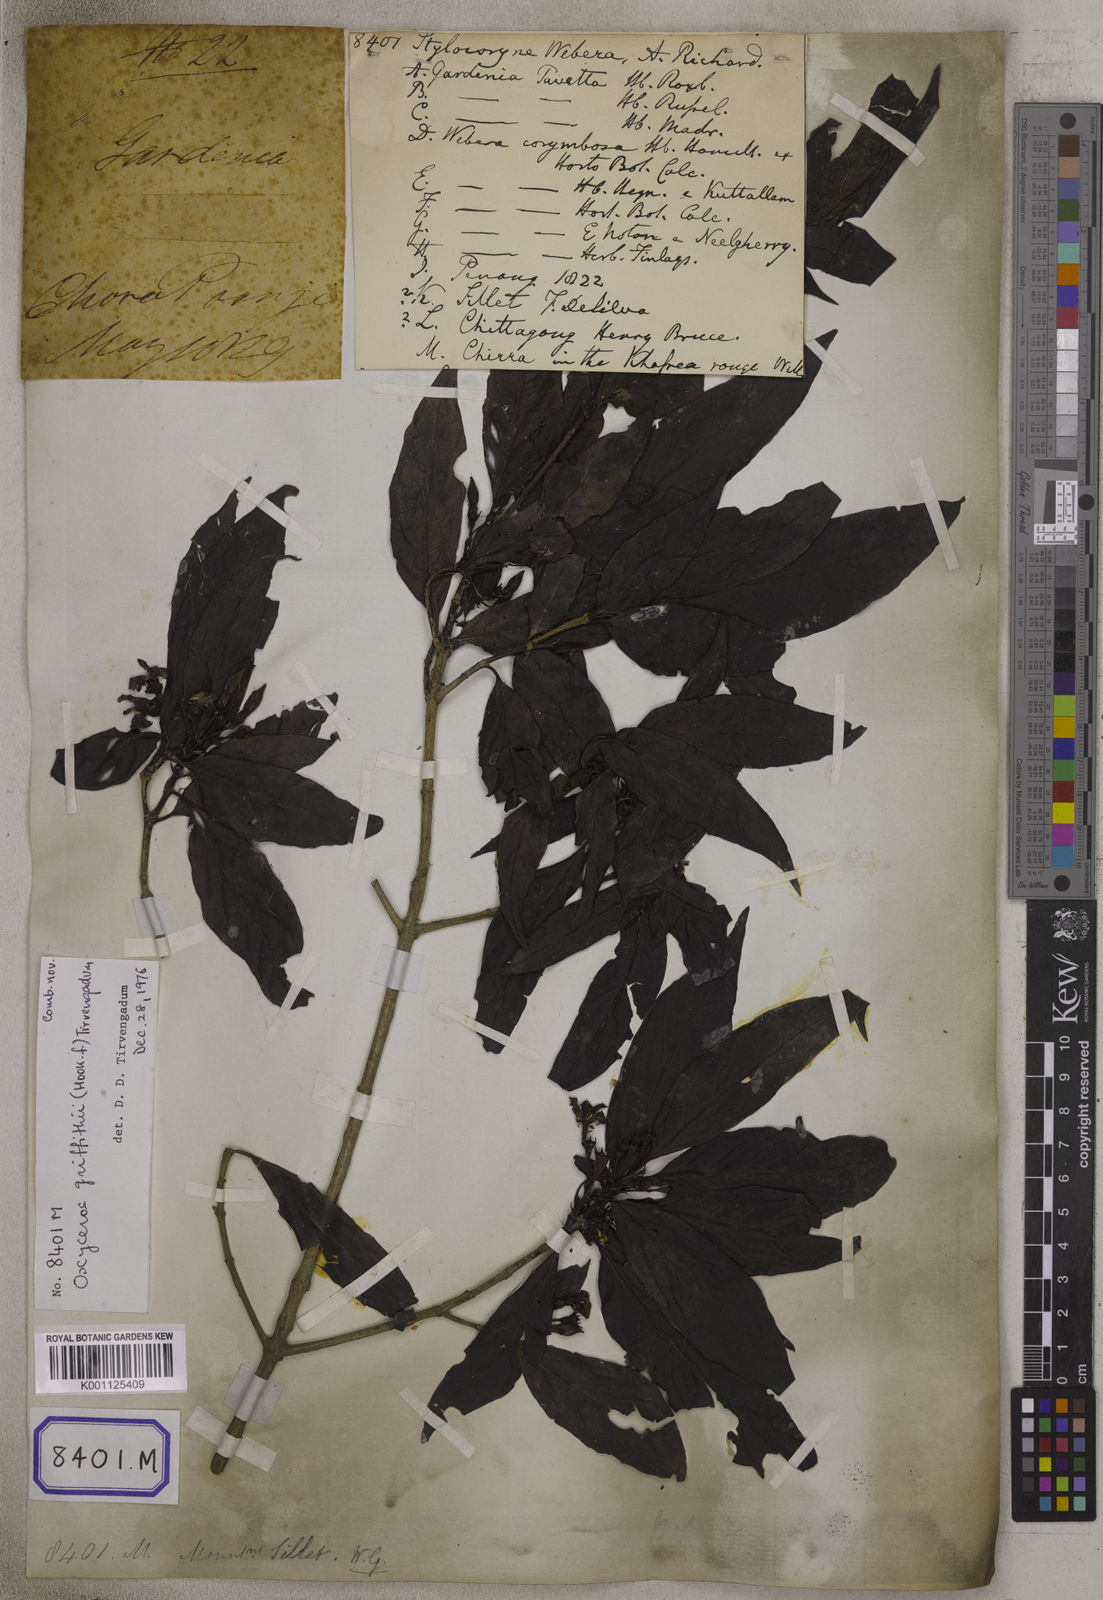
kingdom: Plantae
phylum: Tracheophyta
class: Magnoliopsida
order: Gentianales
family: Rubiaceae
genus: Tarenna
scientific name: Tarenna asiatica
